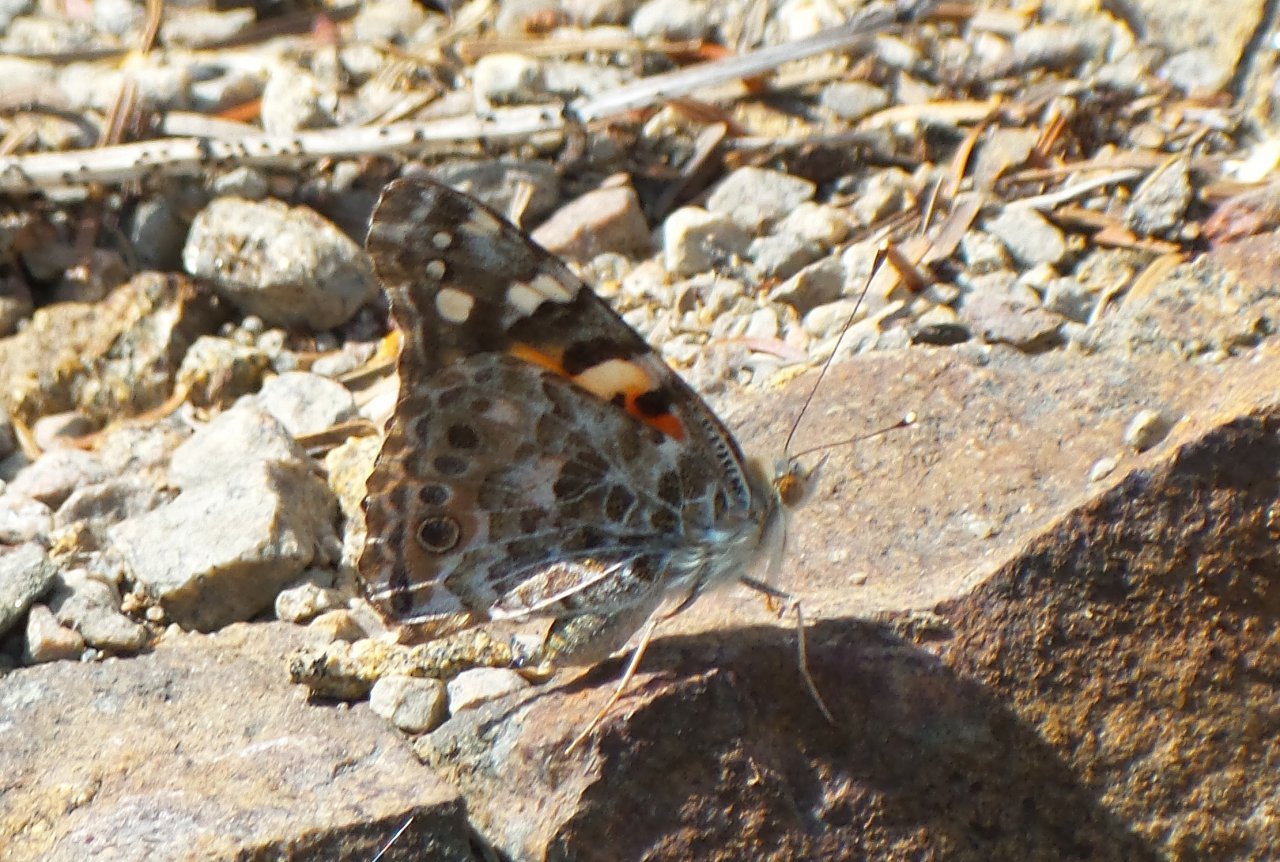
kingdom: Animalia
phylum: Arthropoda
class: Insecta
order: Lepidoptera
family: Nymphalidae
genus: Vanessa
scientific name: Vanessa cardui
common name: Painted Lady
